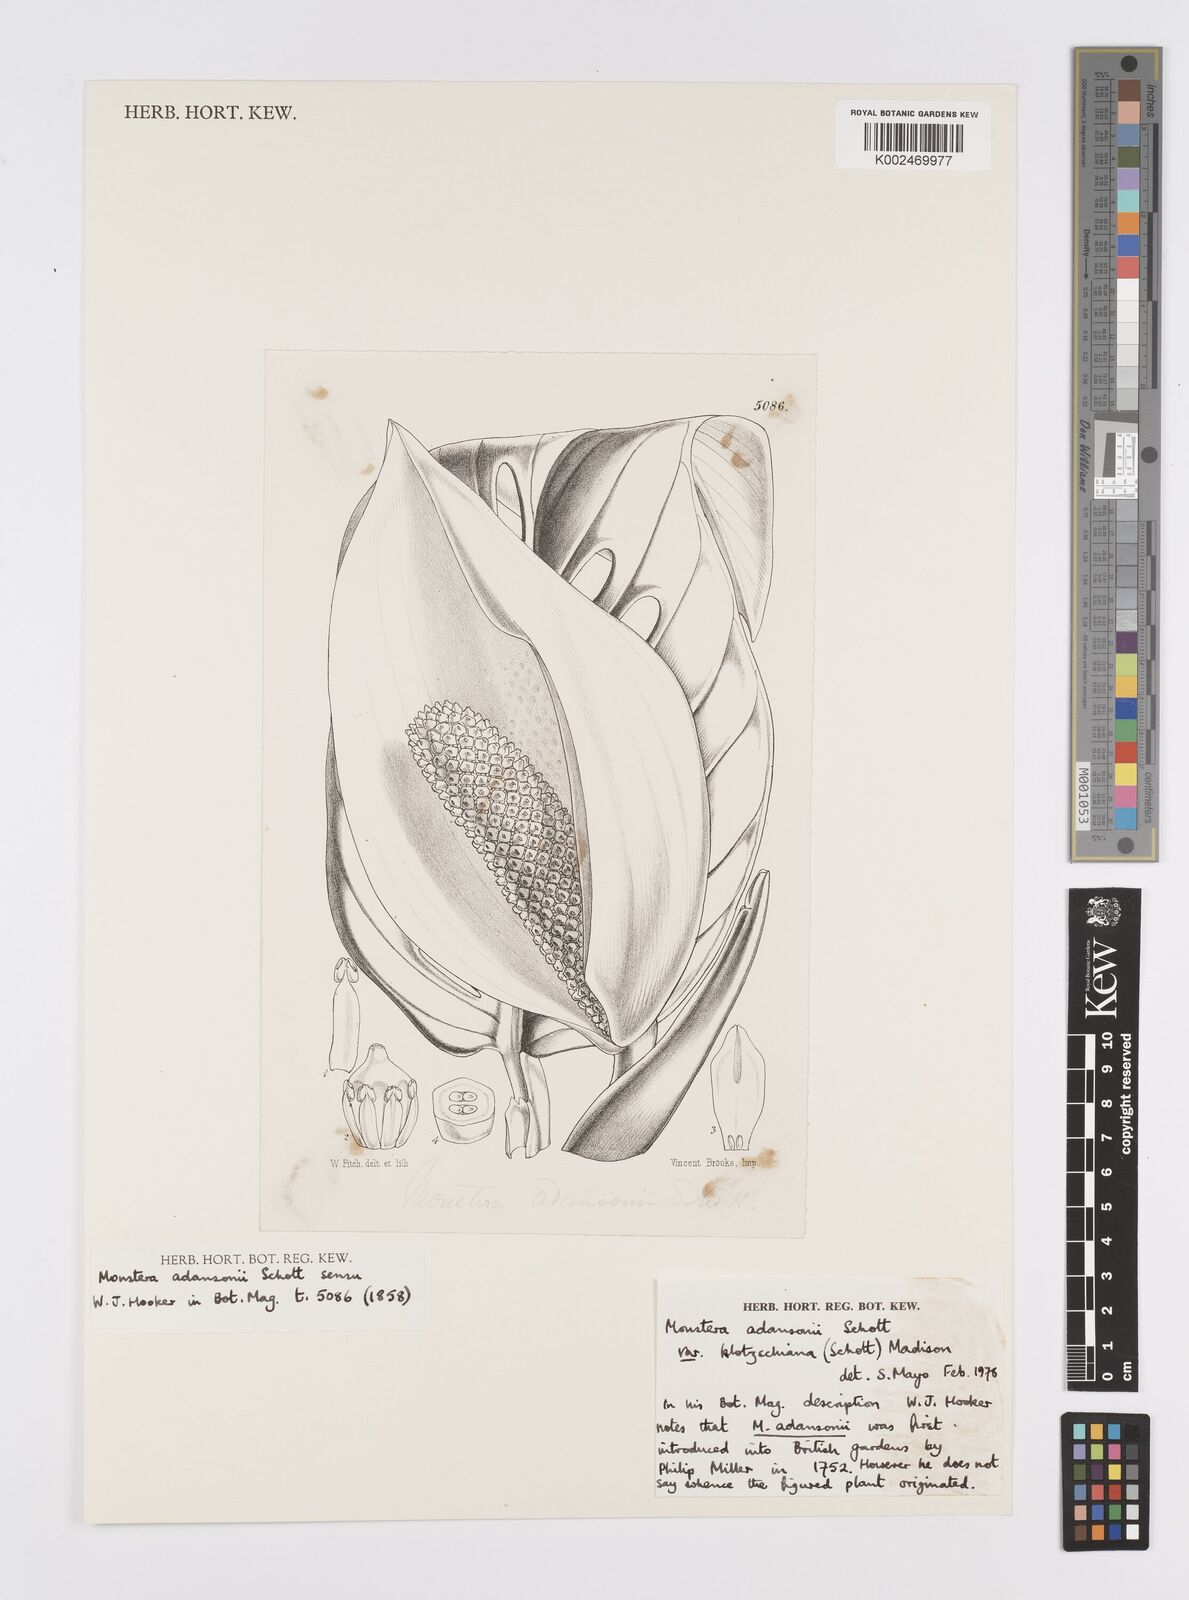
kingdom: Plantae
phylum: Tracheophyta
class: Liliopsida
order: Alismatales
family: Araceae
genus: Monstera
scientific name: Monstera adansonii
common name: Tarovine
